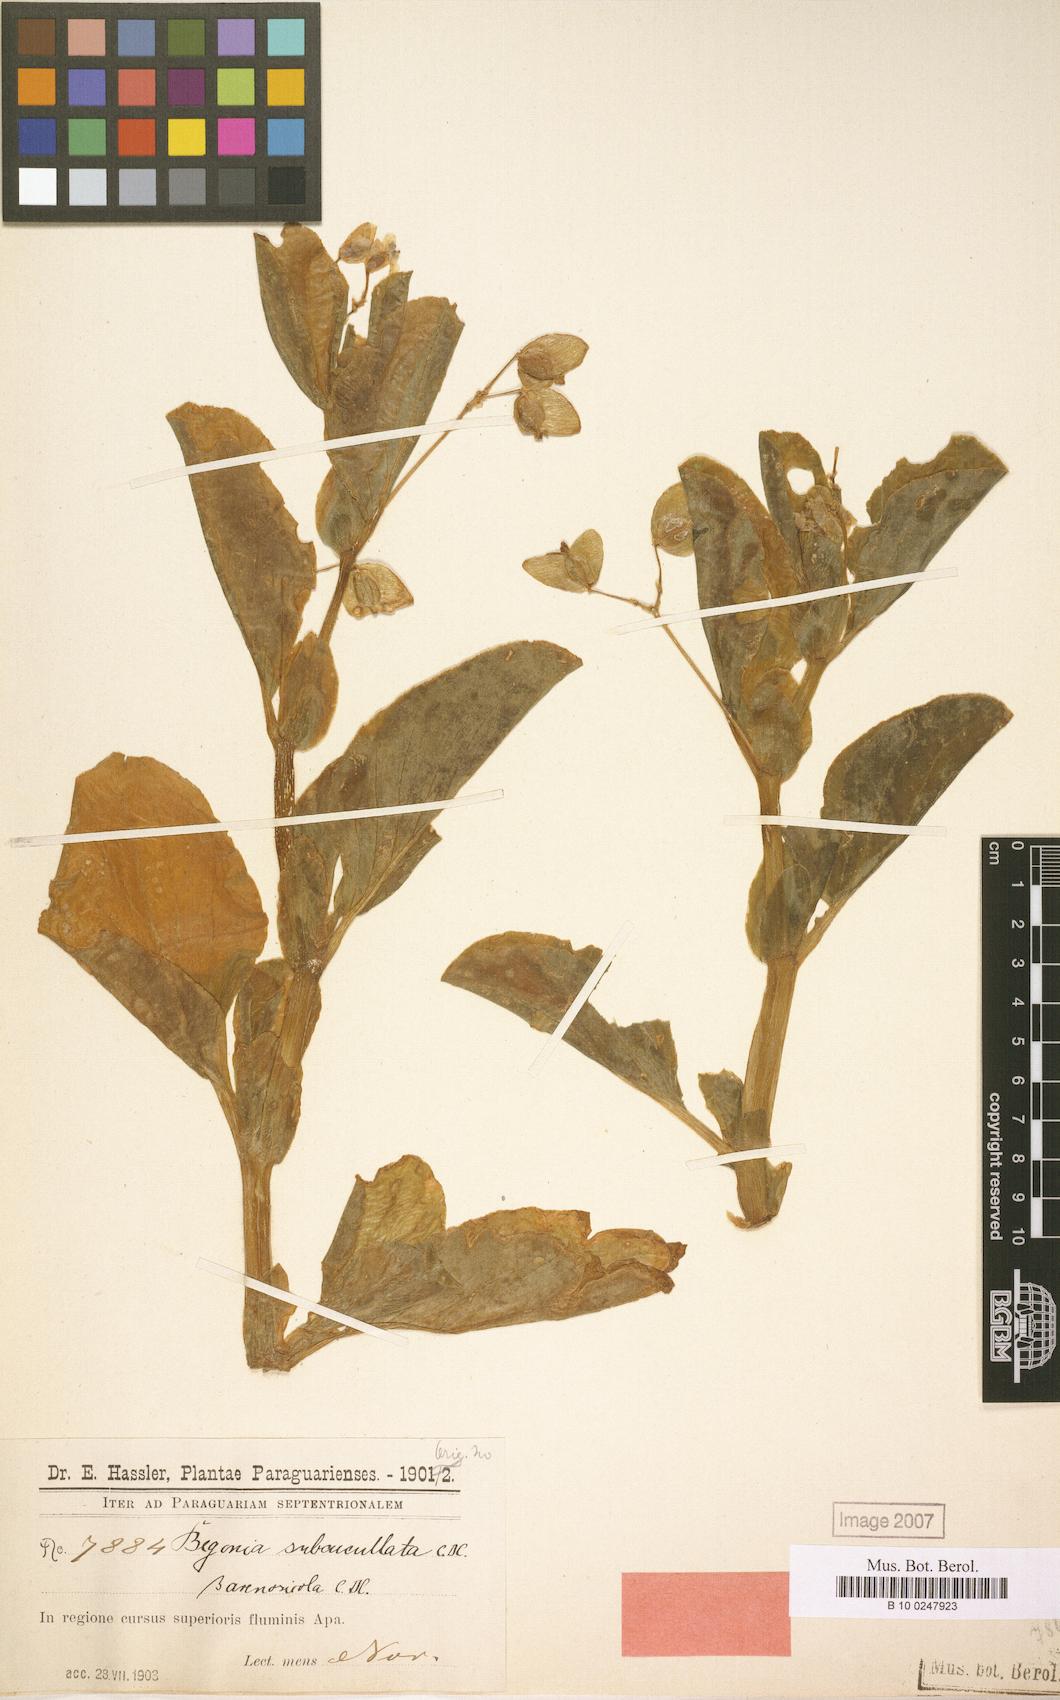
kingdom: Plantae
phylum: Tracheophyta
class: Magnoliopsida
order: Cucurbitales
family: Begoniaceae
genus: Begonia
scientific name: Begonia cucullata
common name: Clubbed begonia
